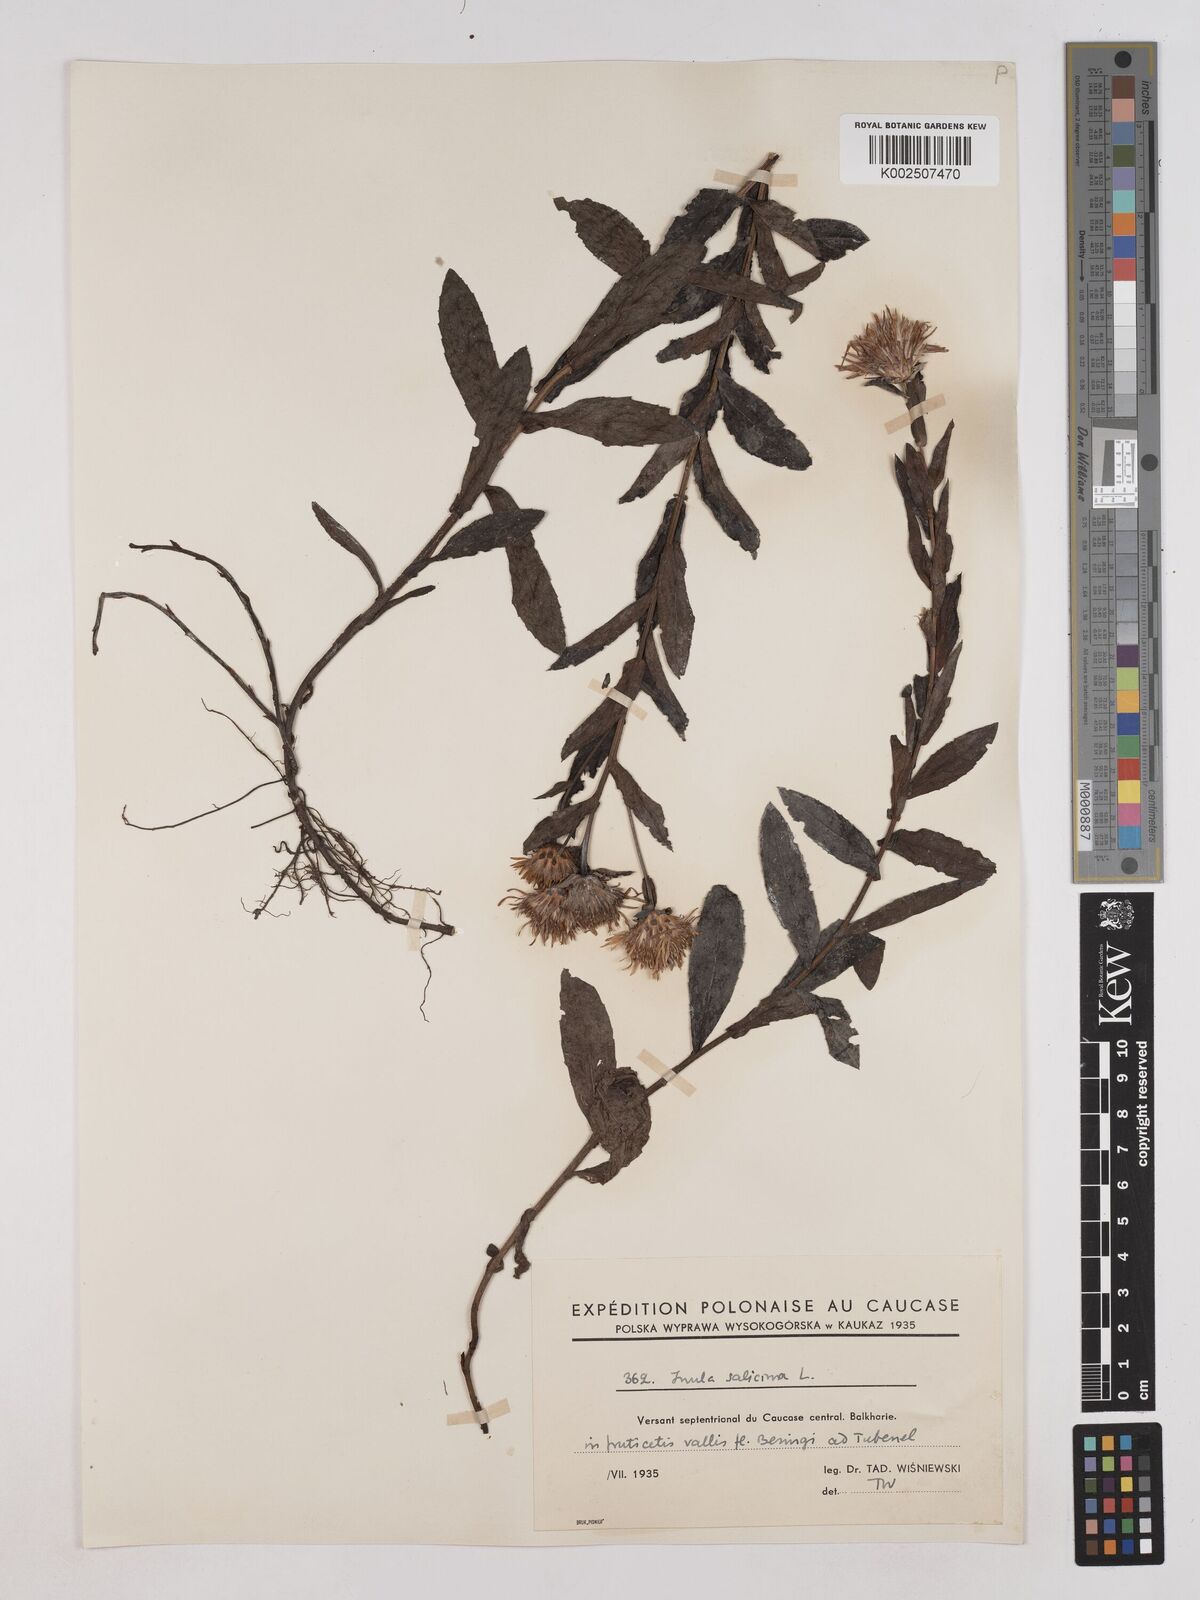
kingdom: Plantae
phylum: Tracheophyta
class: Magnoliopsida
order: Asterales
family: Asteraceae
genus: Pentanema
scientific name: Pentanema salicinum
